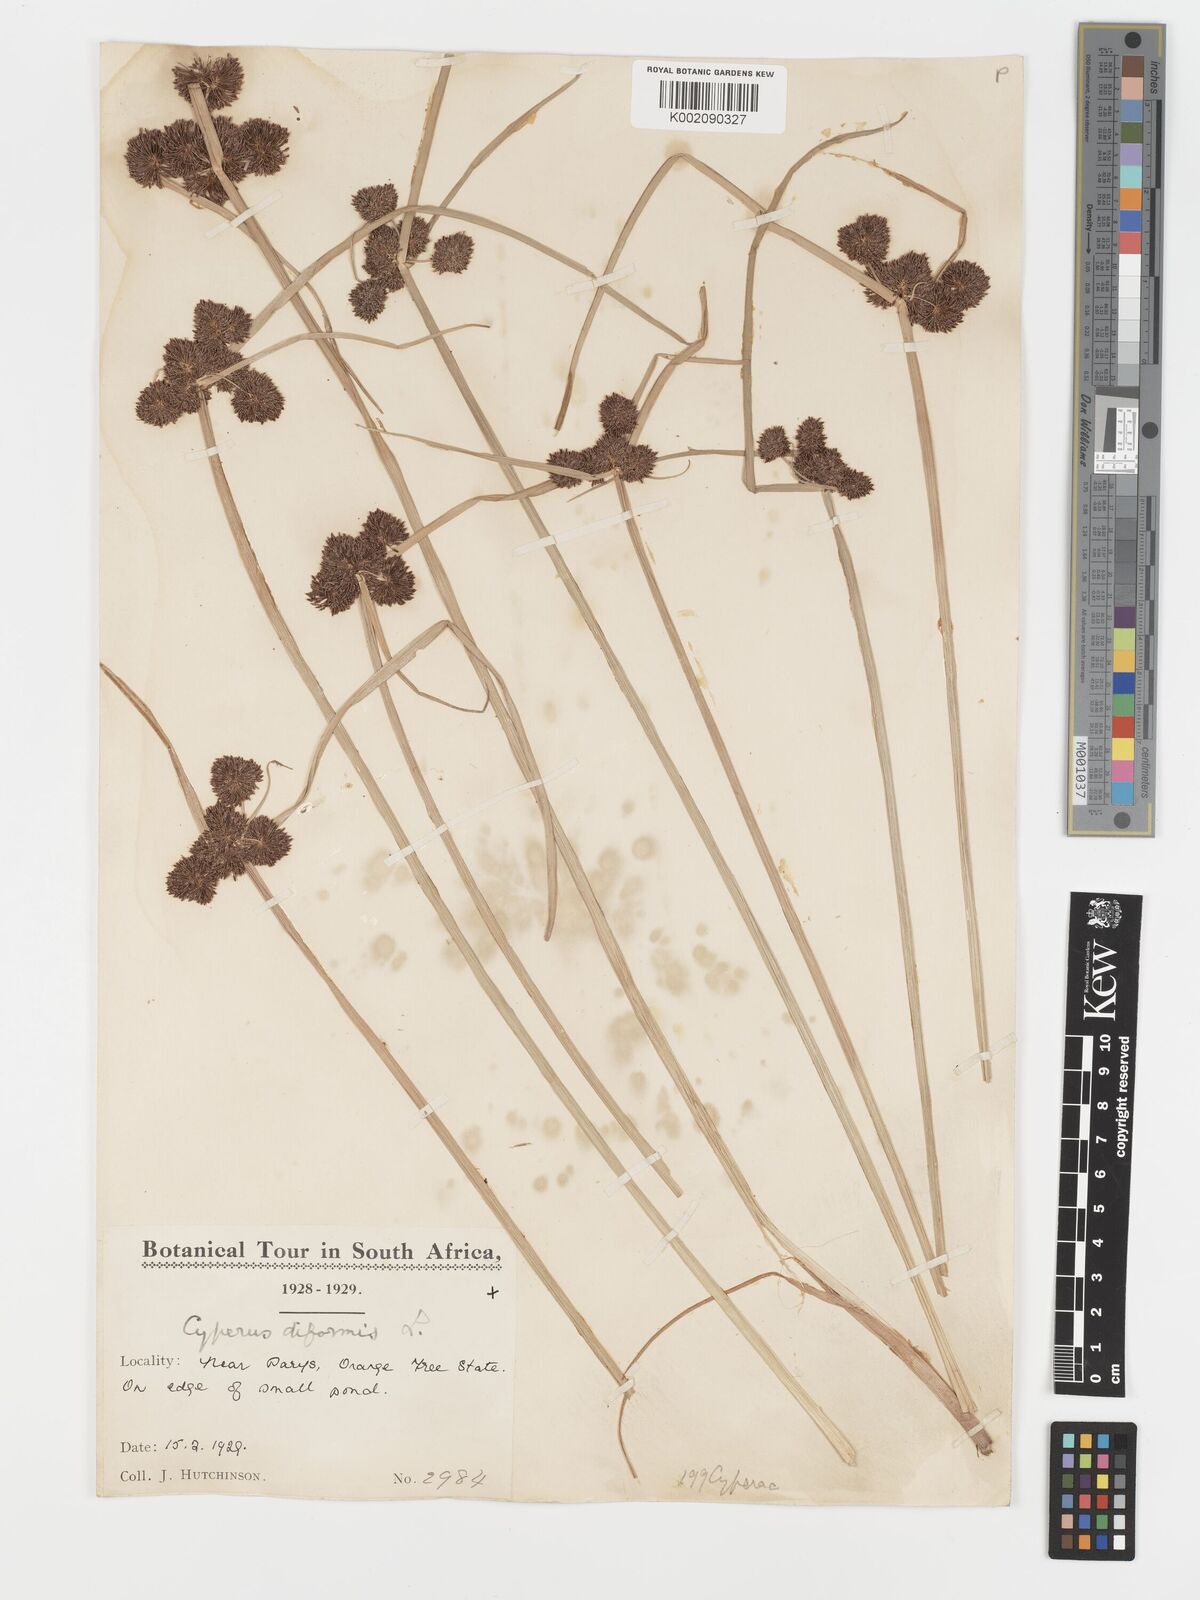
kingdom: Plantae
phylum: Tracheophyta
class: Liliopsida
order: Poales
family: Cyperaceae
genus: Cyperus
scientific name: Cyperus difformis
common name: Variable flatsedge
